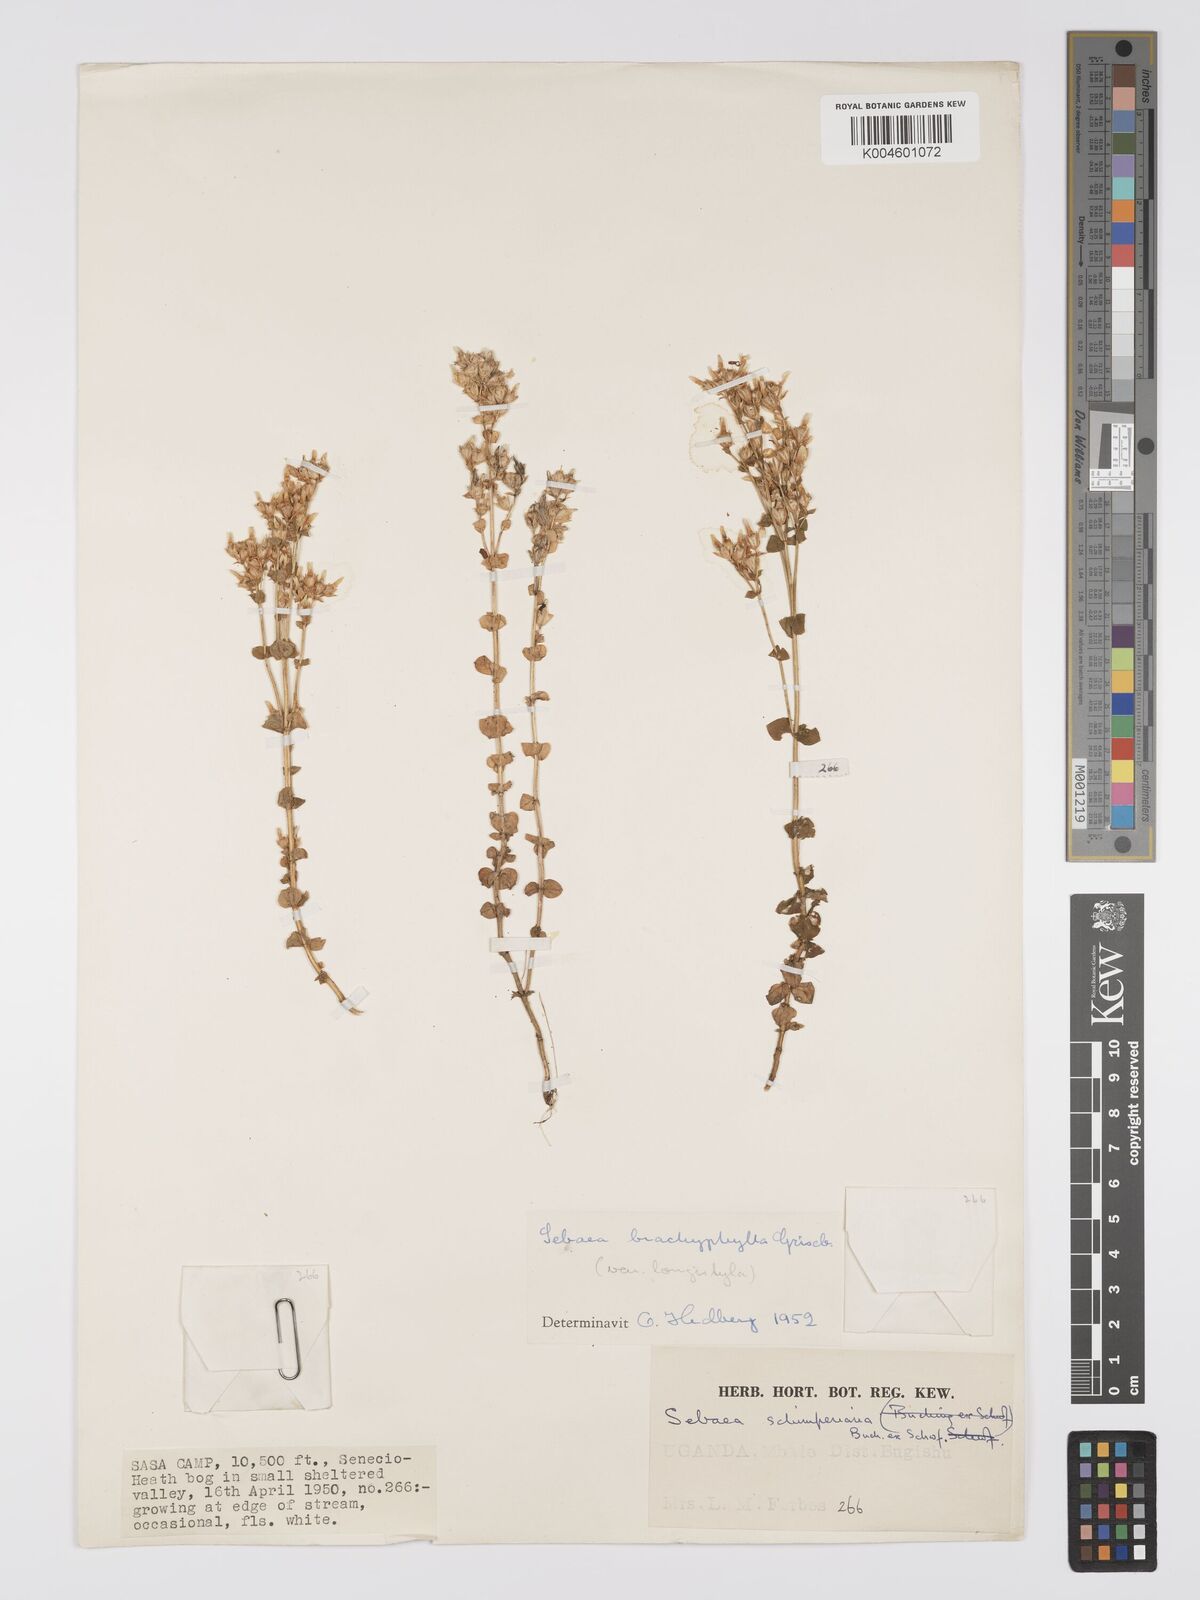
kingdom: Plantae
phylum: Tracheophyta
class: Magnoliopsida
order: Gentianales
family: Gentianaceae
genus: Sebaea
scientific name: Sebaea brachyphylla
